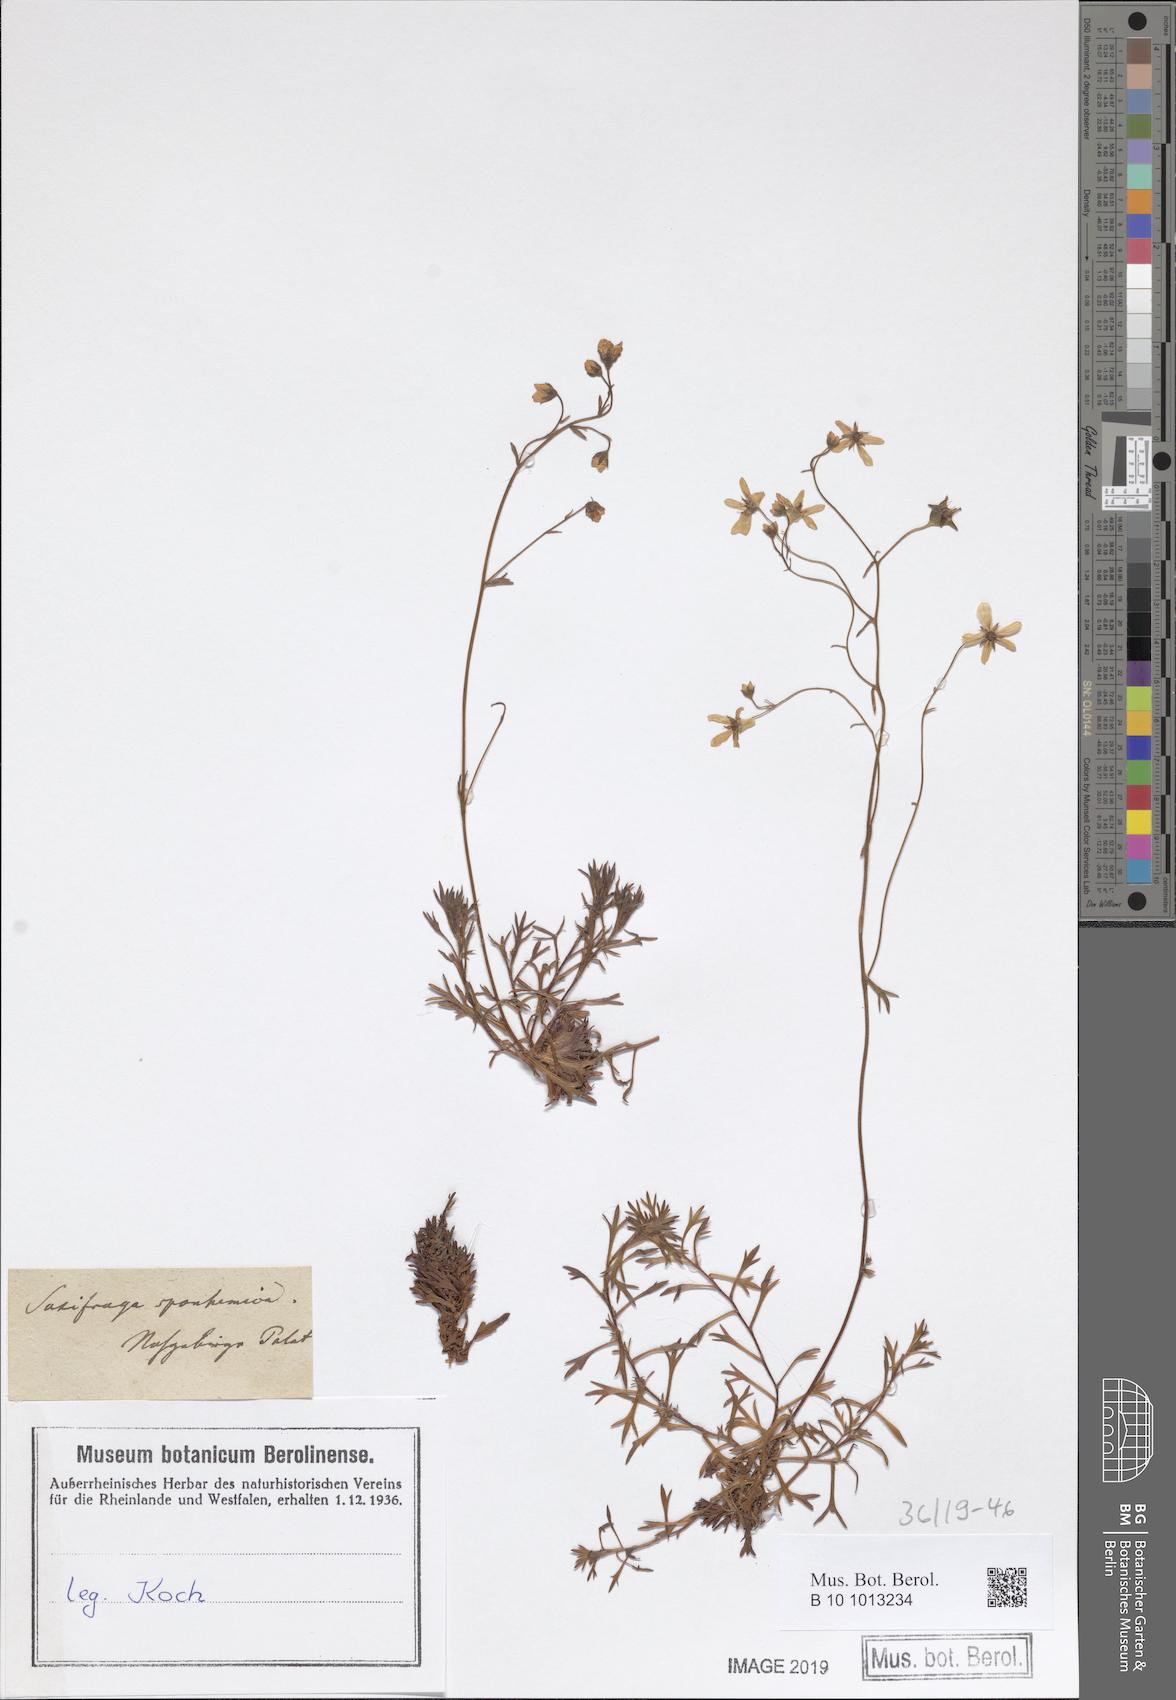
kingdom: Plantae
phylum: Tracheophyta
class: Magnoliopsida
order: Saxifragales
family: Saxifragaceae
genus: Saxifraga
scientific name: Saxifraga rosacea
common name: Irish saxifrage
